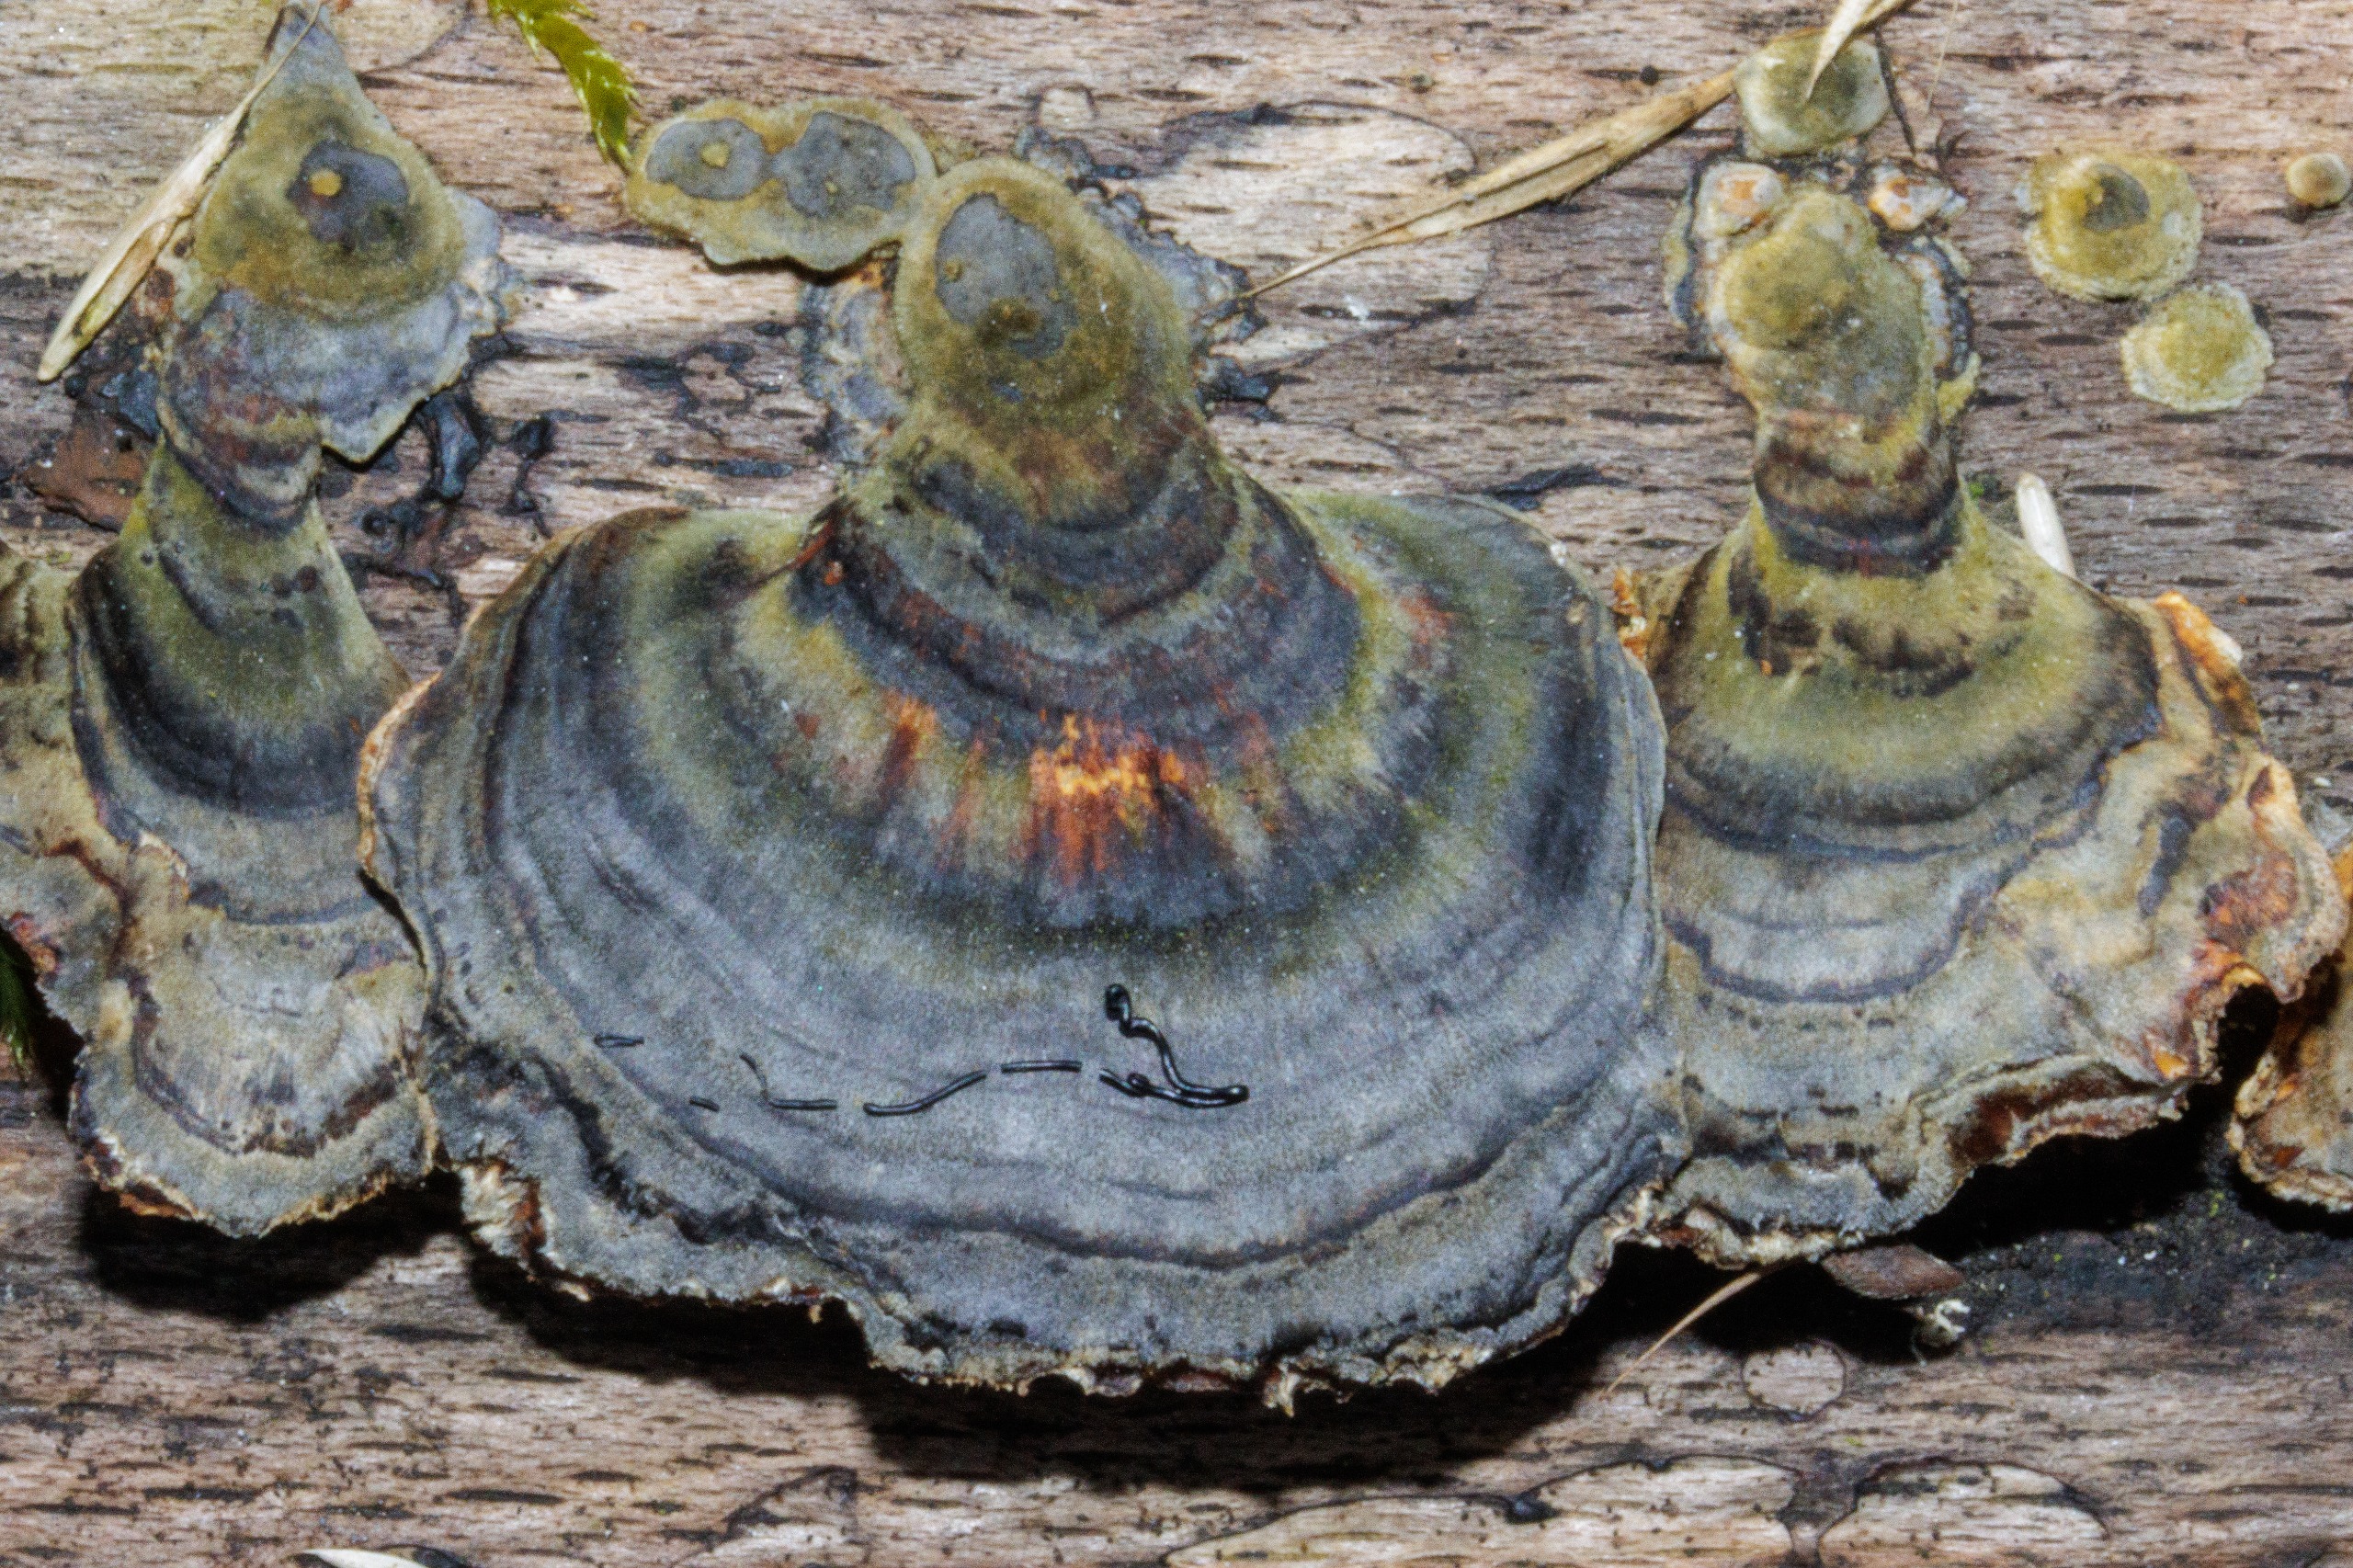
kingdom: Fungi
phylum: Basidiomycota
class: Agaricomycetes
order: Polyporales
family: Polyporaceae
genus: Trametes
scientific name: Trametes versicolor
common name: Broget læderporesvamp
